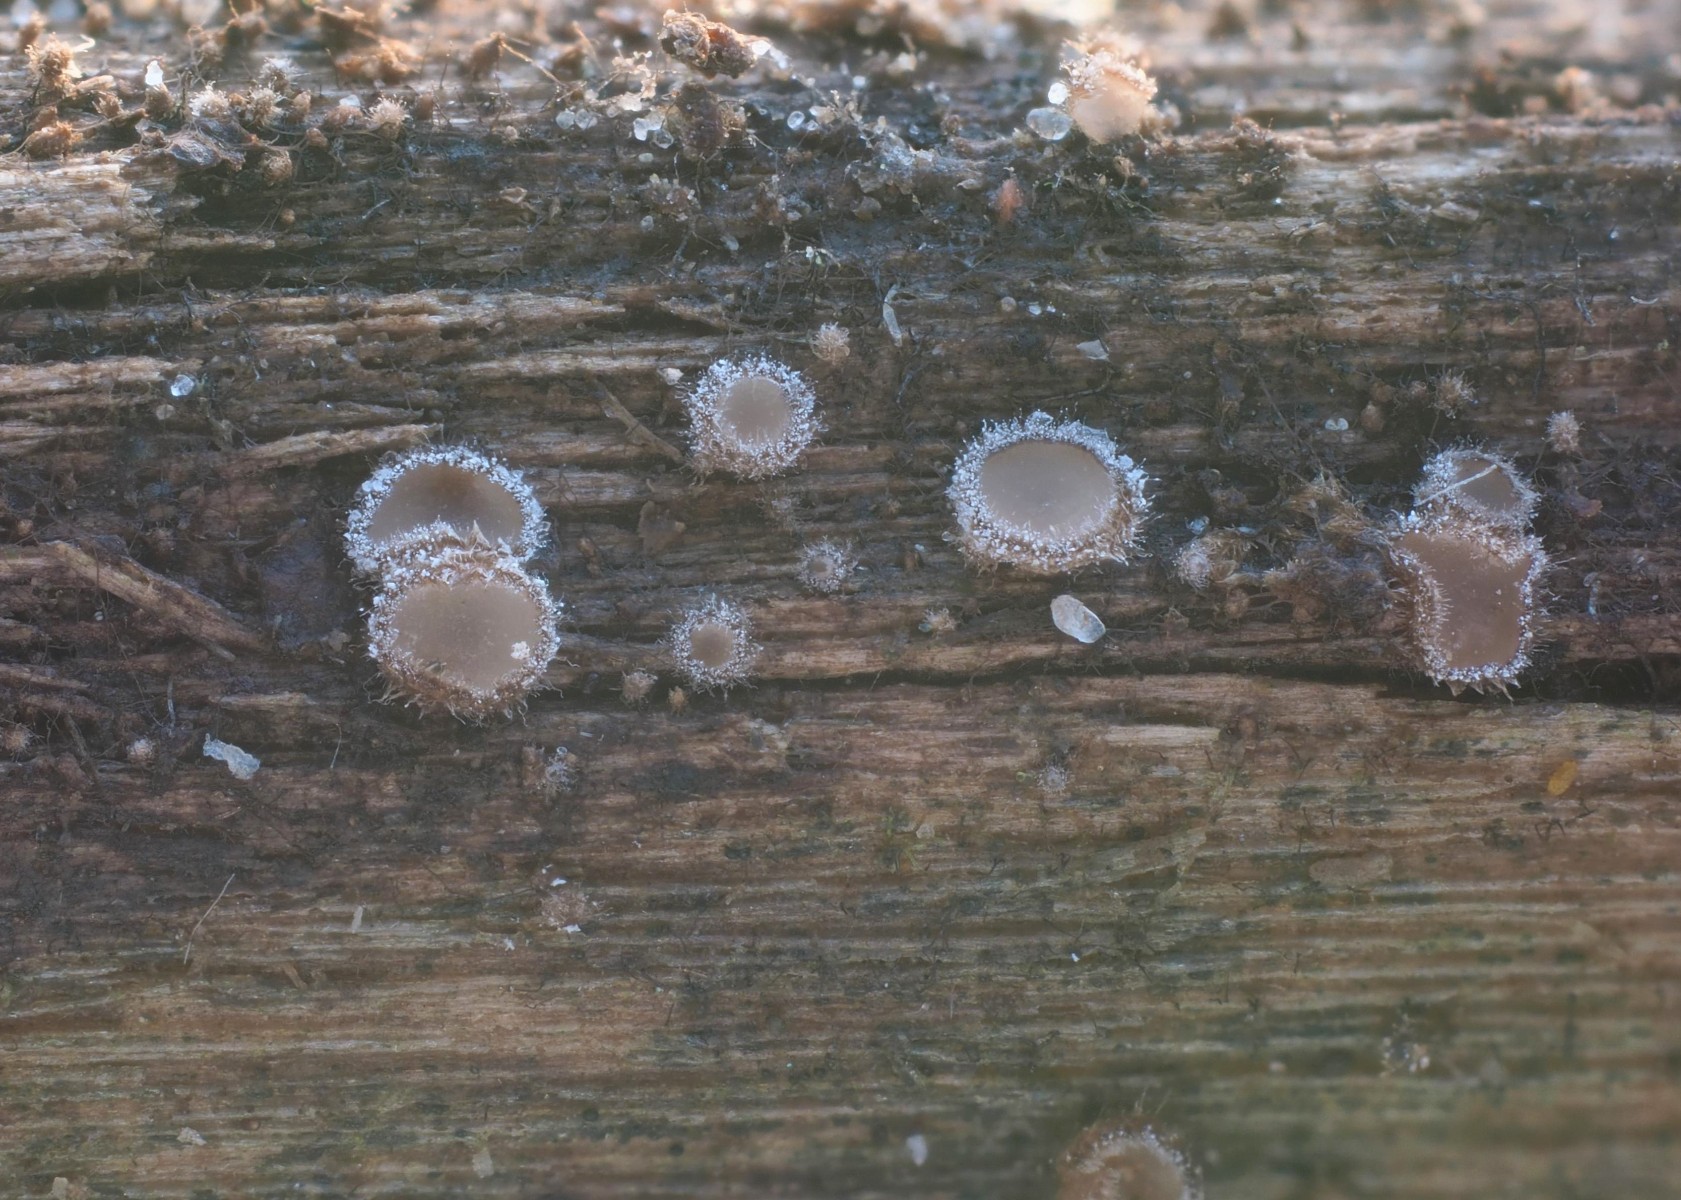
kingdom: Fungi
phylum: Ascomycota
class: Leotiomycetes
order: Helotiales
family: Solenopeziaceae
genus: Lasiobelonium
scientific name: Lasiobelonium variegatum
